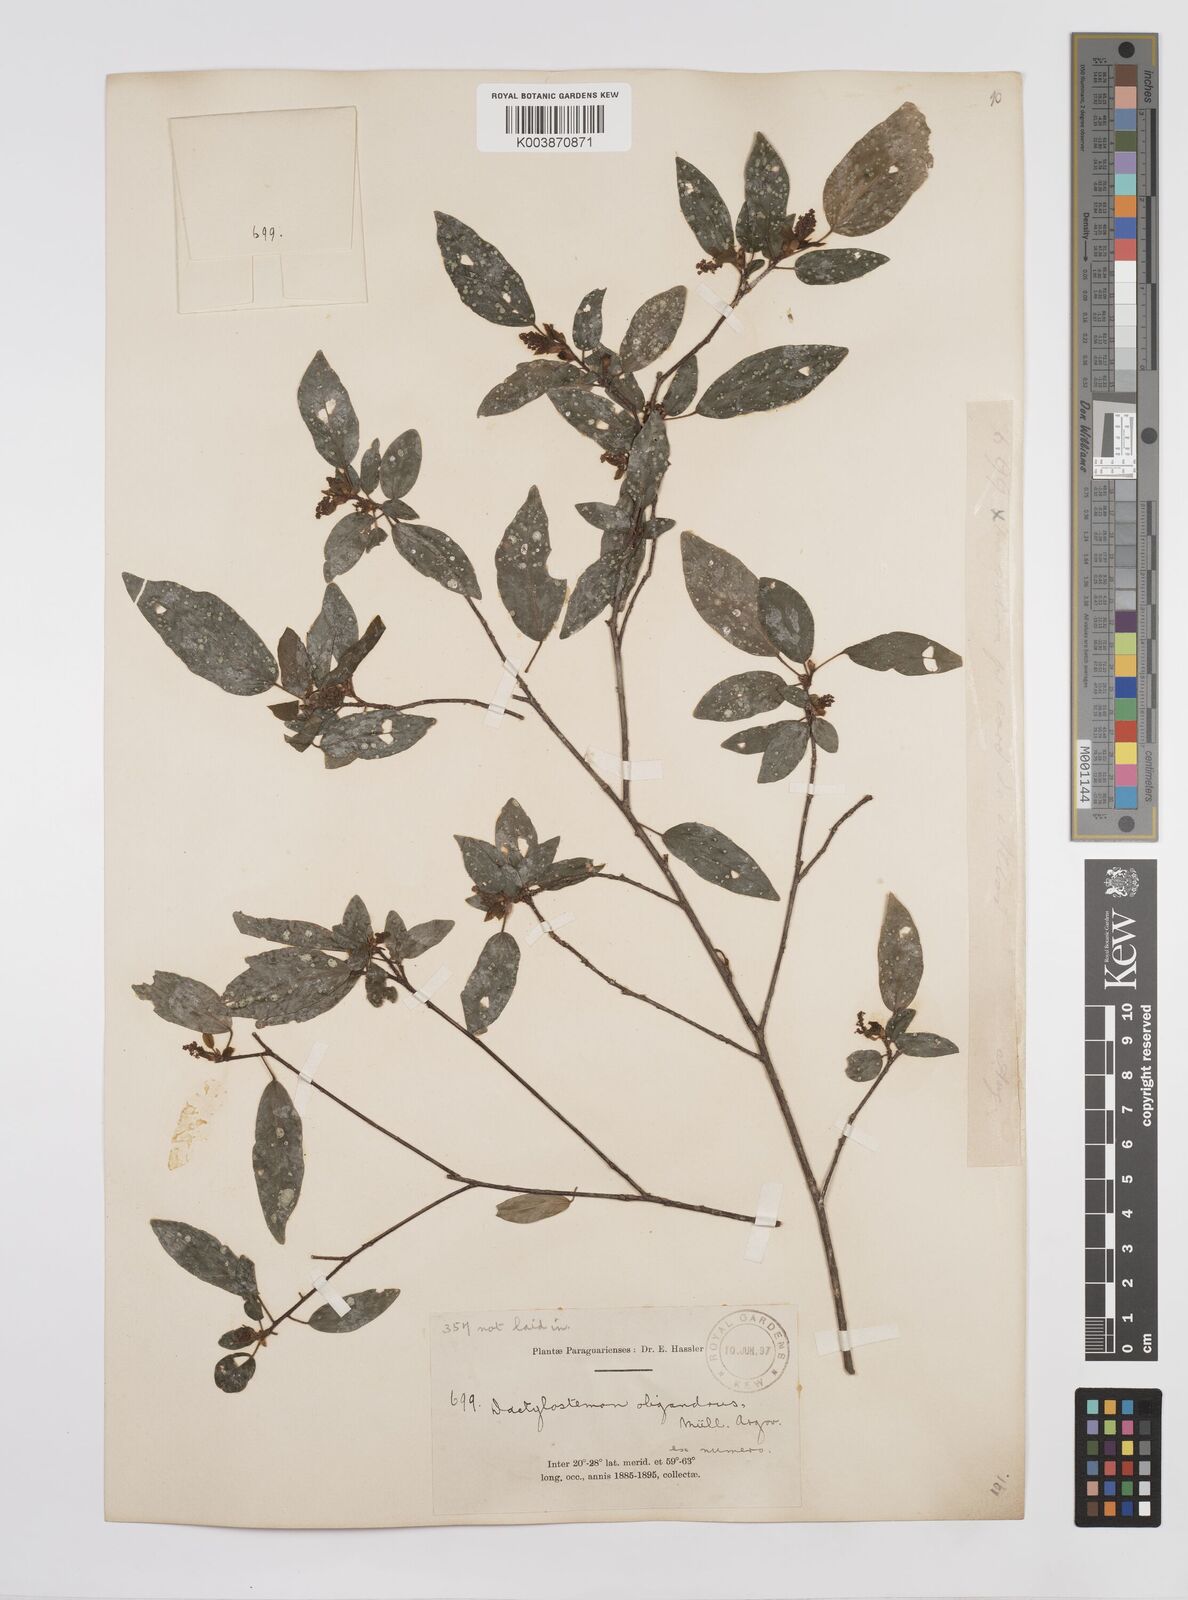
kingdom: Plantae
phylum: Tracheophyta
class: Magnoliopsida
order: Malpighiales
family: Euphorbiaceae
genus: Actinostemon
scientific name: Actinostemon concepcionis
